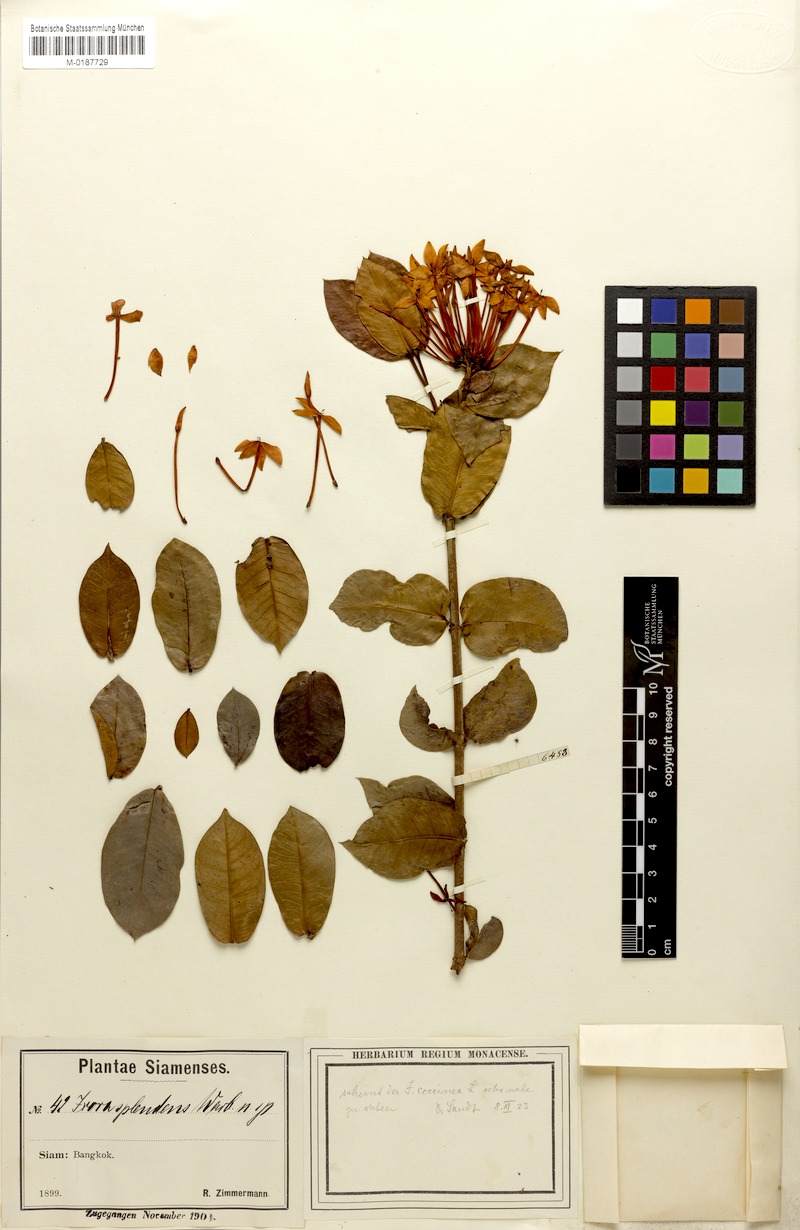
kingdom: Plantae
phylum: Tracheophyta
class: Magnoliopsida
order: Gentianales
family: Rubiaceae
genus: Ixora
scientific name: Ixora coccinea
